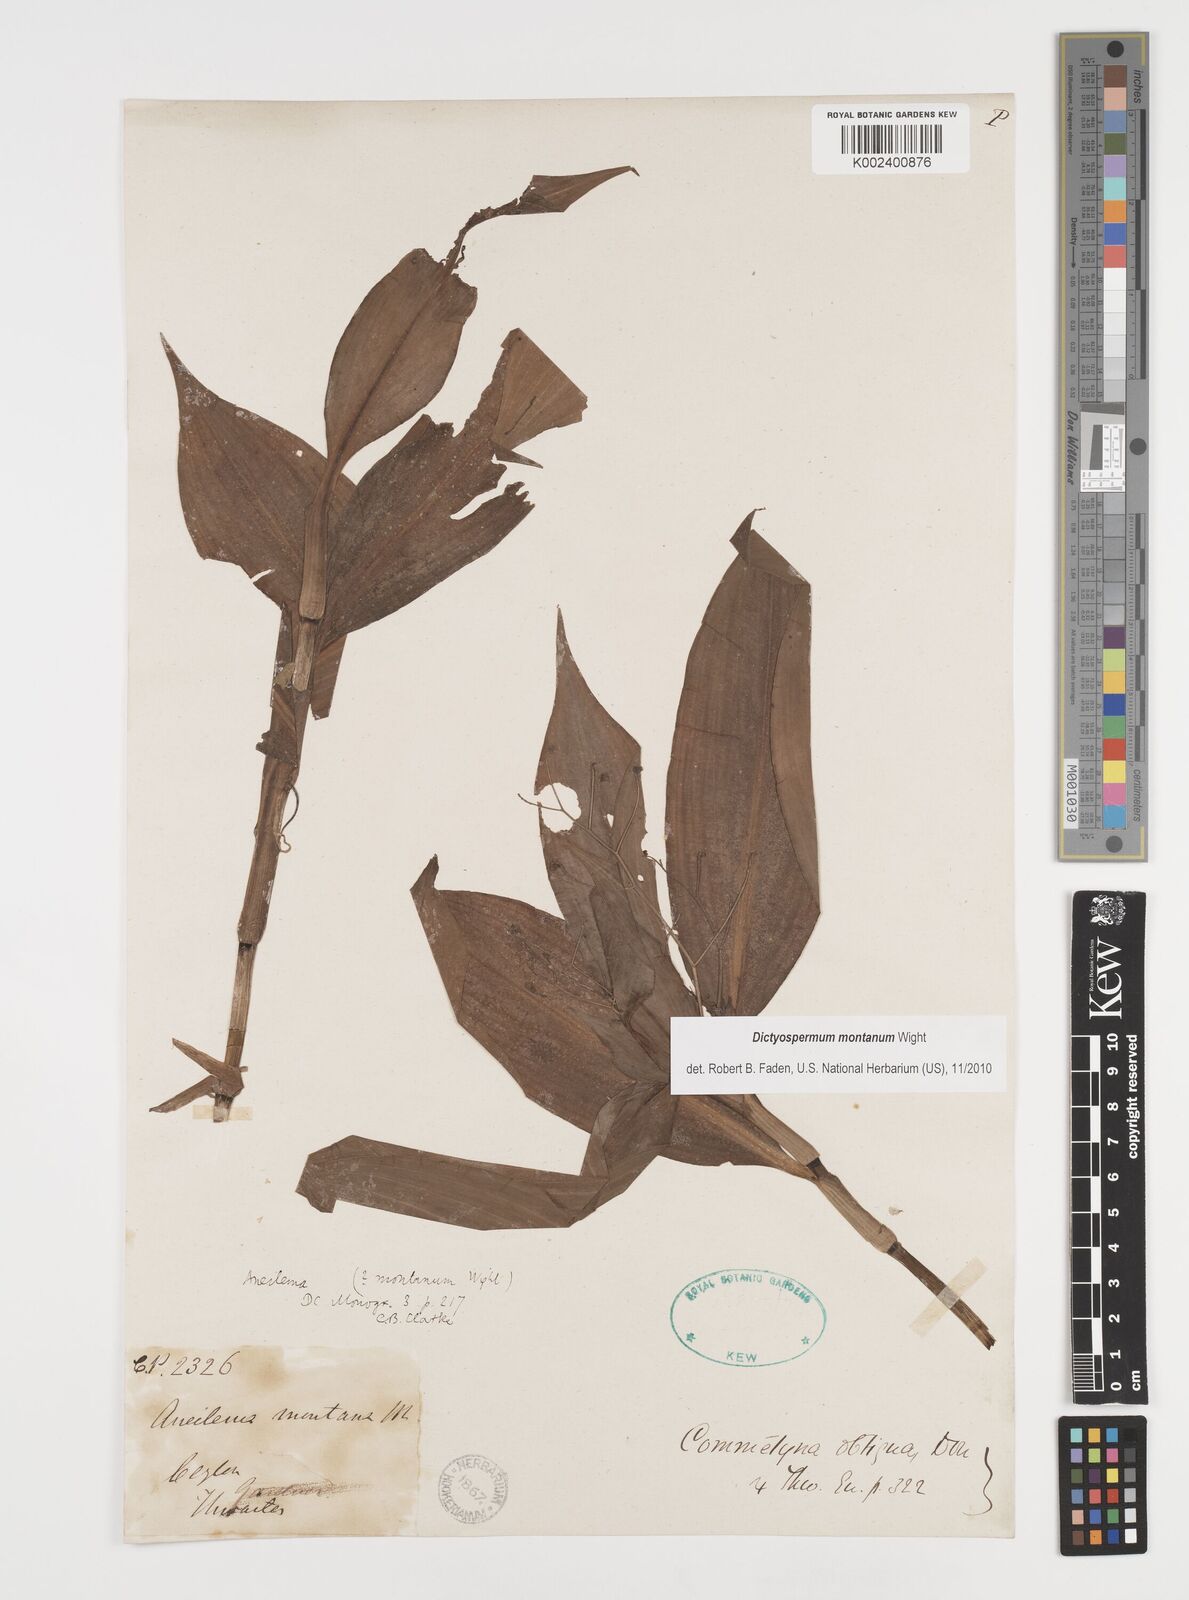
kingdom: Plantae
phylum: Tracheophyta
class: Liliopsida
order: Commelinales
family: Commelinaceae
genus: Dictyospermum
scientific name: Dictyospermum montanum
